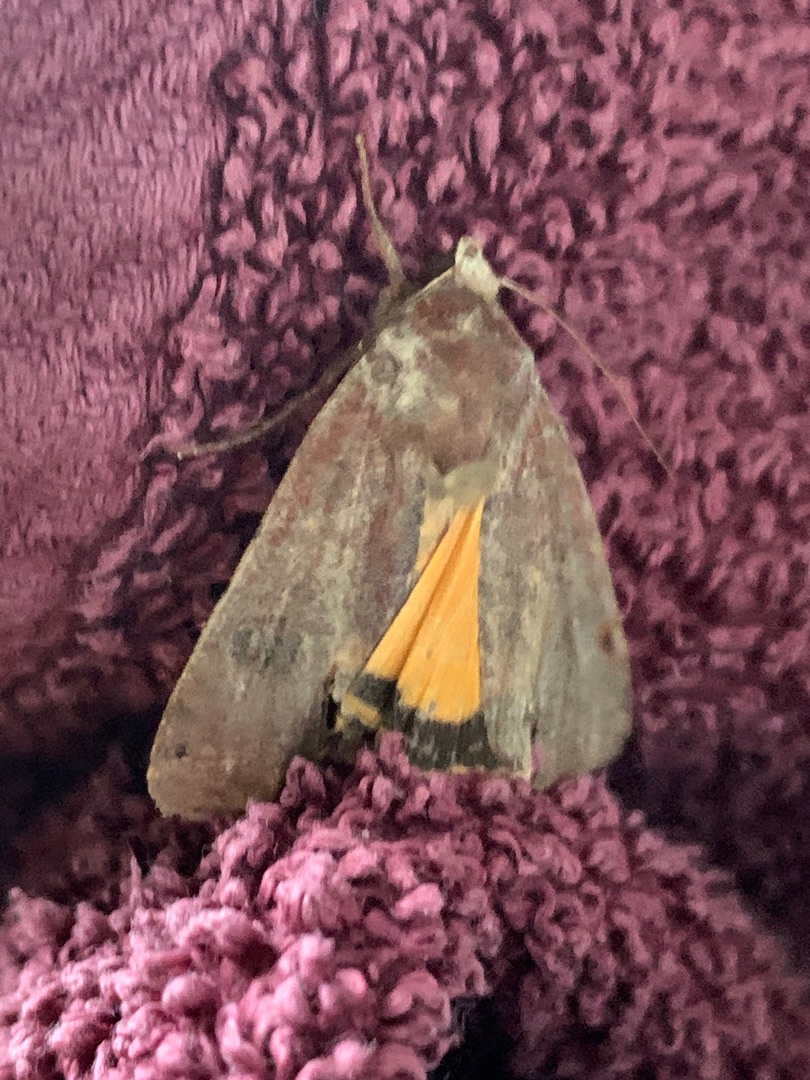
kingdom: Animalia
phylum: Arthropoda
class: Insecta
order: Lepidoptera
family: Noctuidae
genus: Noctua
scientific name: Noctua pronuba
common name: Stor smutugle
